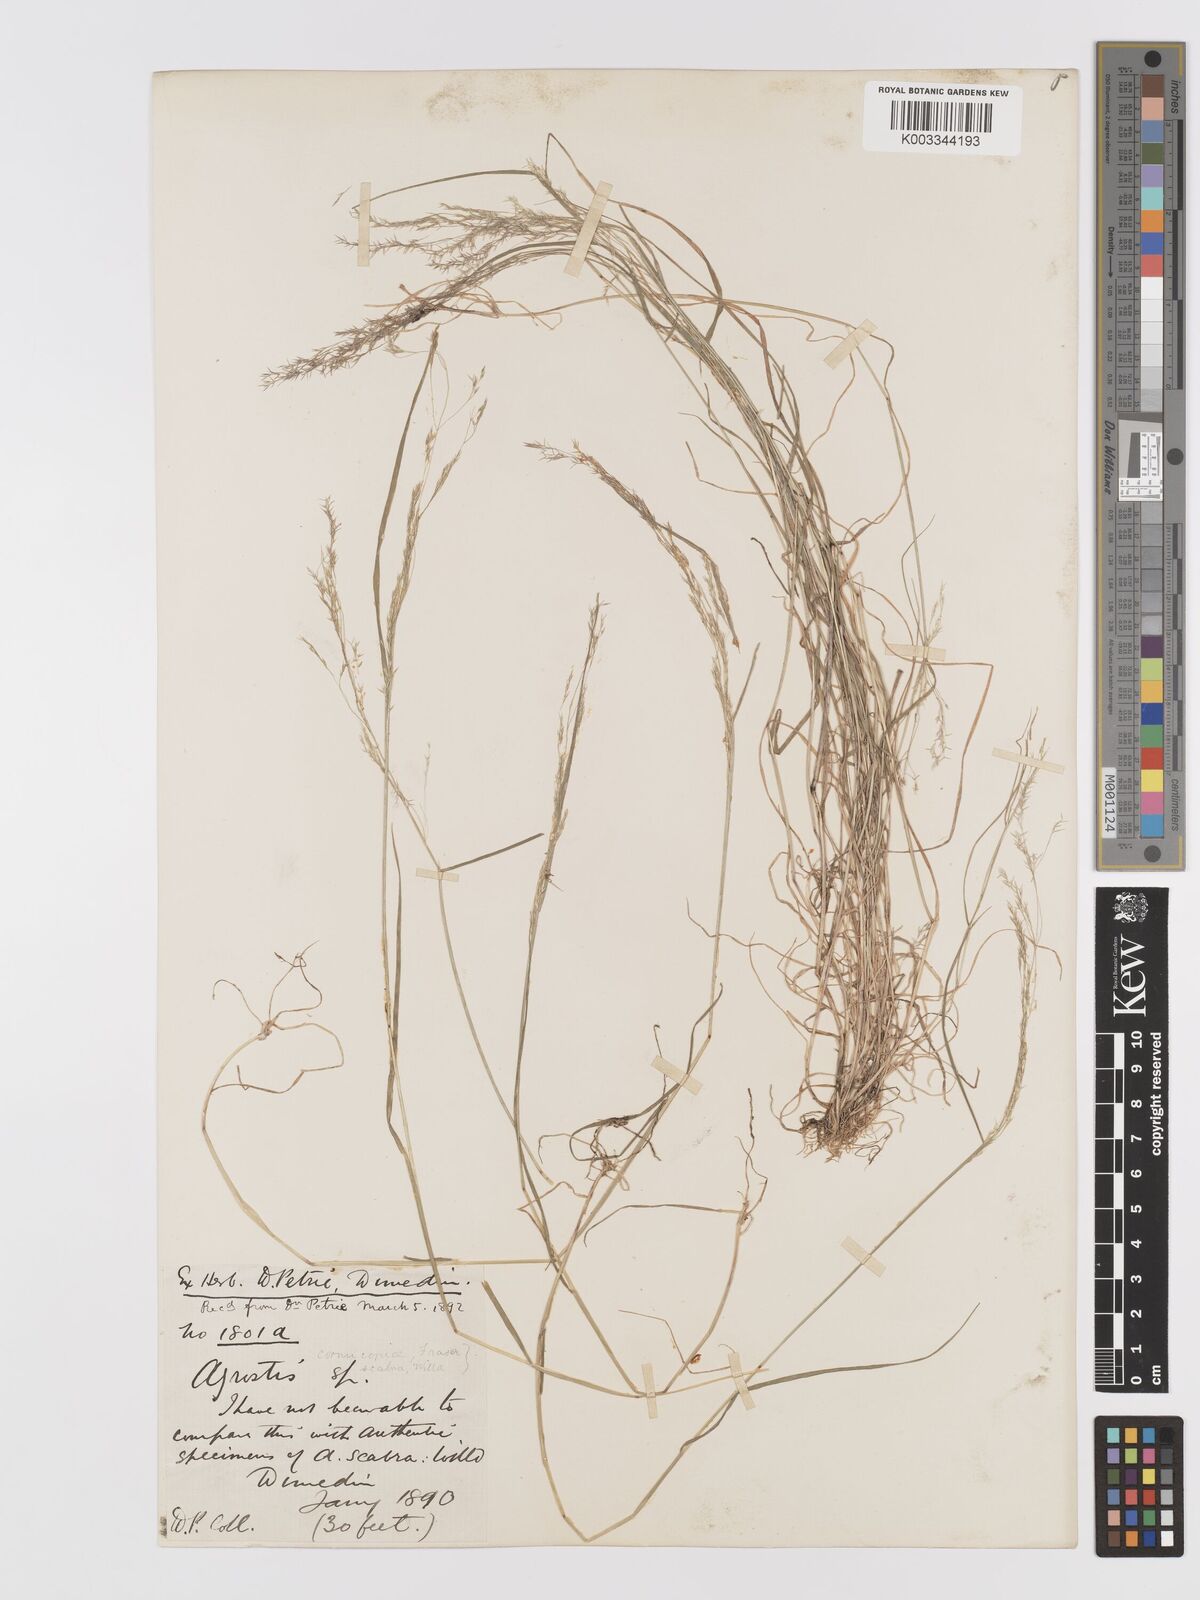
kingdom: Plantae
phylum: Tracheophyta
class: Liliopsida
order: Poales
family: Poaceae
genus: Agrostis
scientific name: Agrostis
